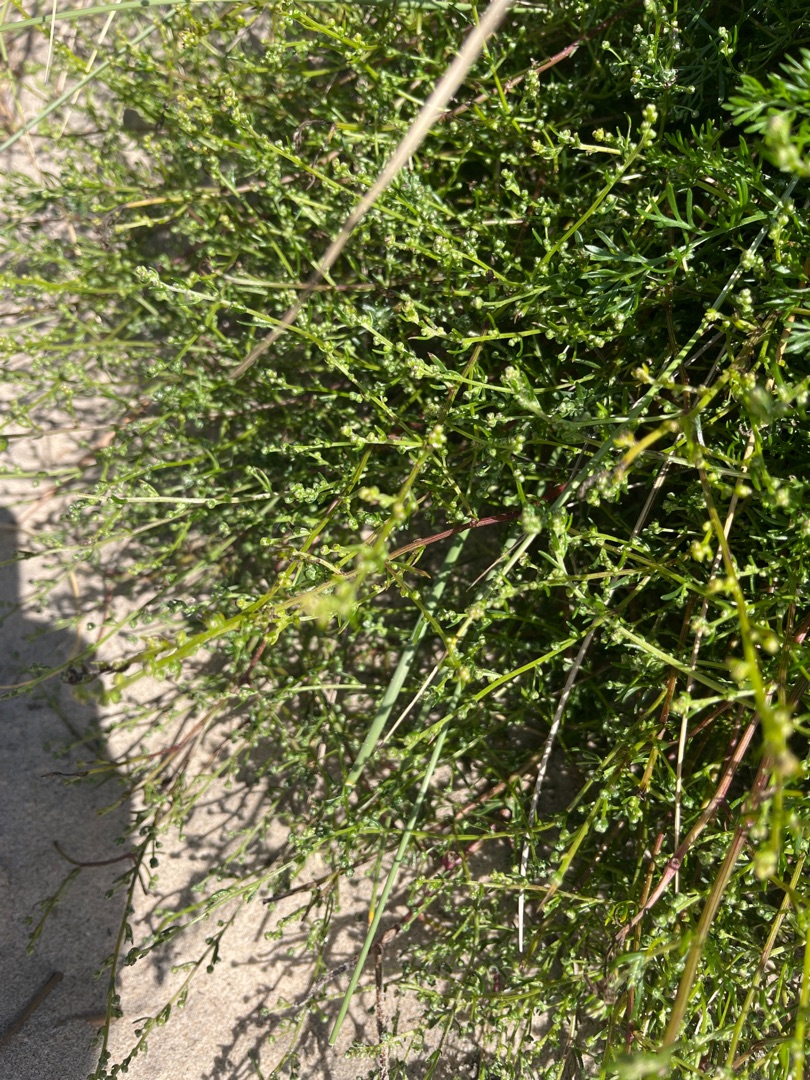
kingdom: Plantae
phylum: Tracheophyta
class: Magnoliopsida
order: Asterales
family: Asteraceae
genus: Artemisia
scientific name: Artemisia campestris
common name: Mark-bynke
